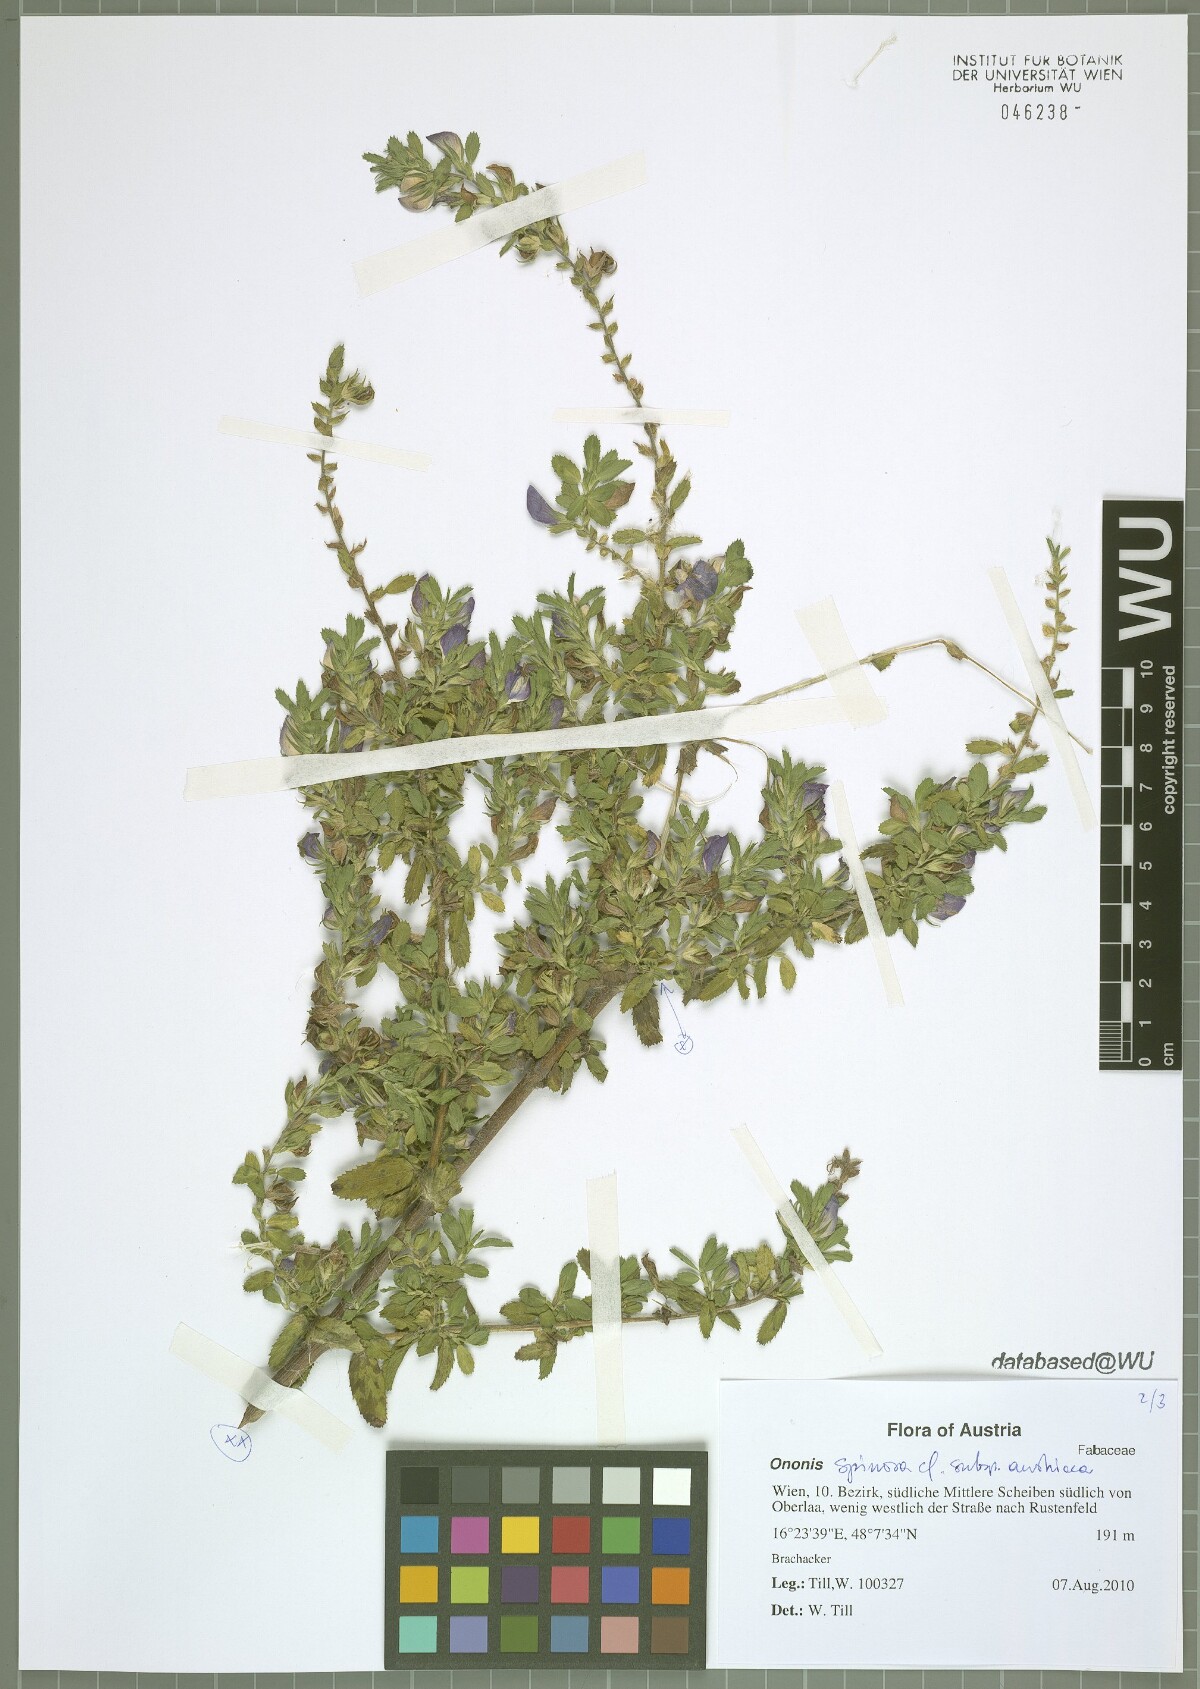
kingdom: Plantae
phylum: Tracheophyta
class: Magnoliopsida
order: Fabales
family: Fabaceae
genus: Ononis
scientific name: Ononis spinosa
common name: Spiny restharrow
